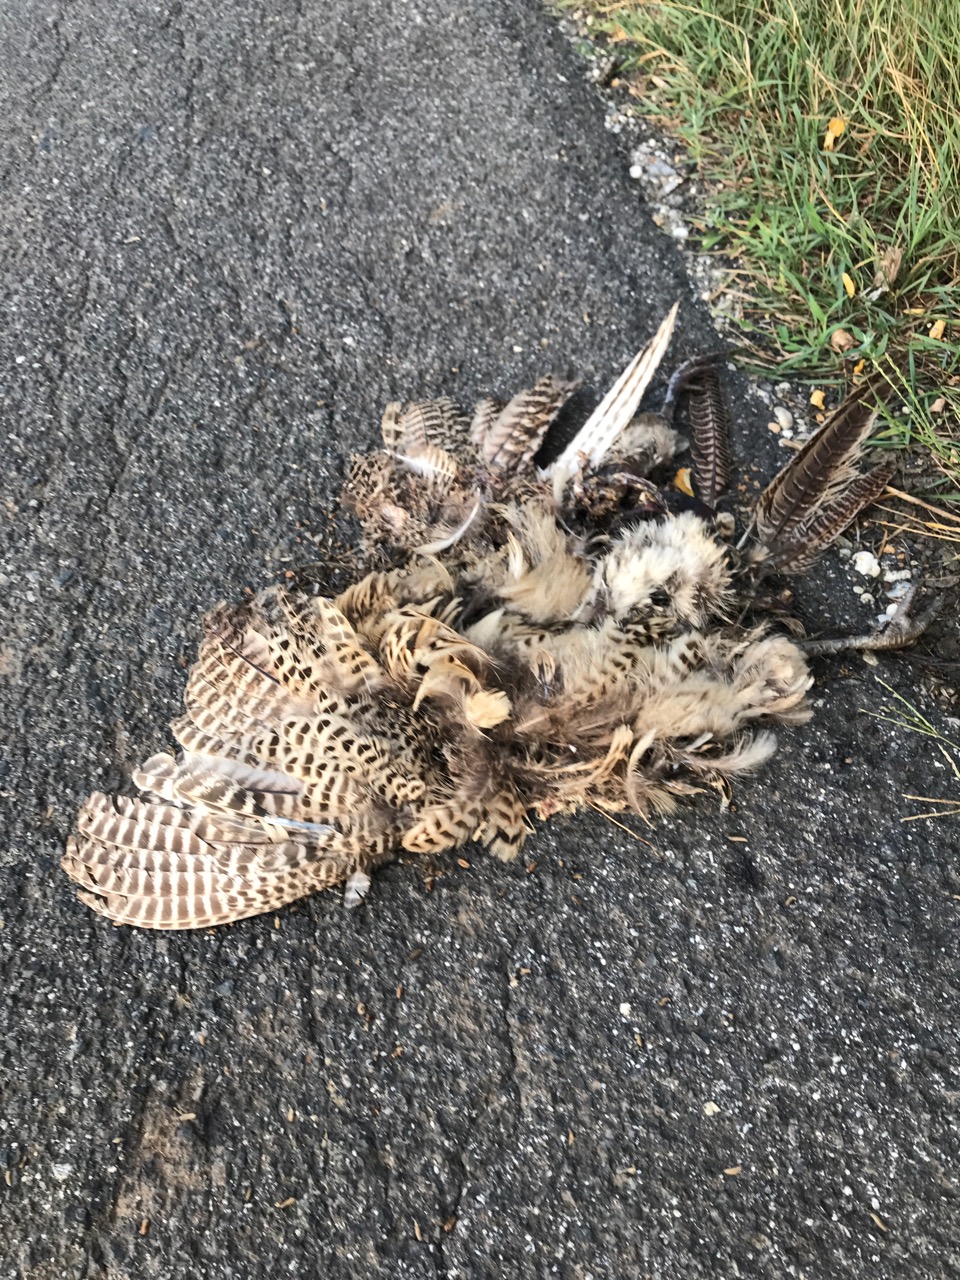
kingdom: Animalia
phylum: Chordata
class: Aves
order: Galliformes
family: Phasianidae
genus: Phasianus
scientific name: Phasianus colchicus
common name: Common pheasant
